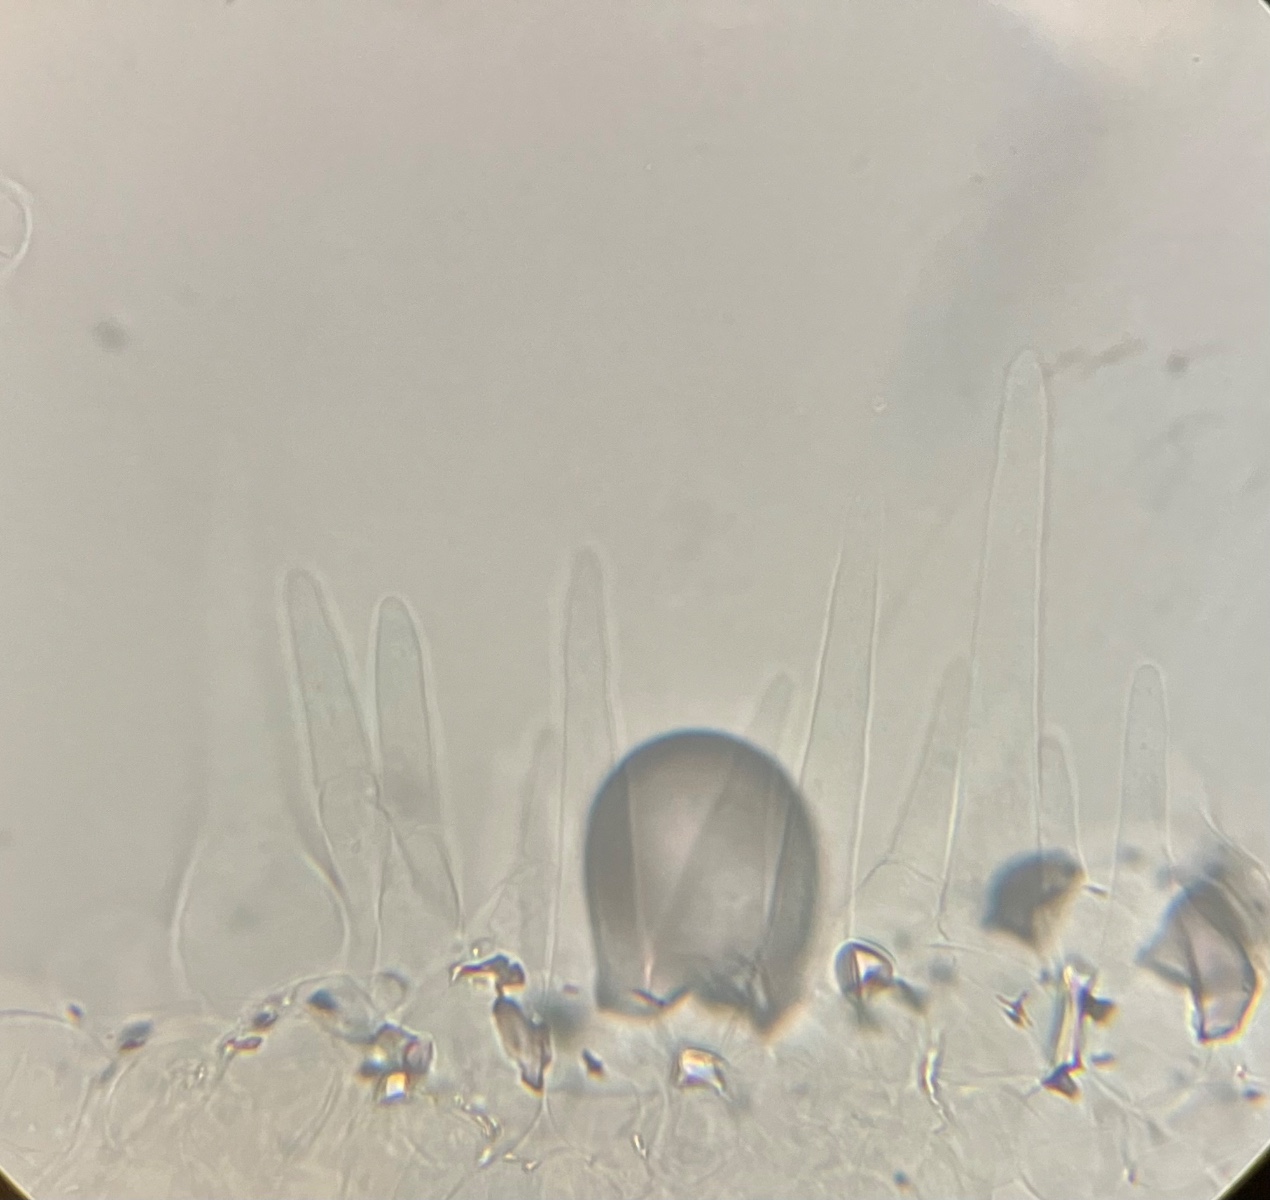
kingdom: Fungi
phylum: Basidiomycota
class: Agaricomycetes
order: Agaricales
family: Psathyrellaceae
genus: Tulosesus
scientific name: Tulosesus
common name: blækhat
